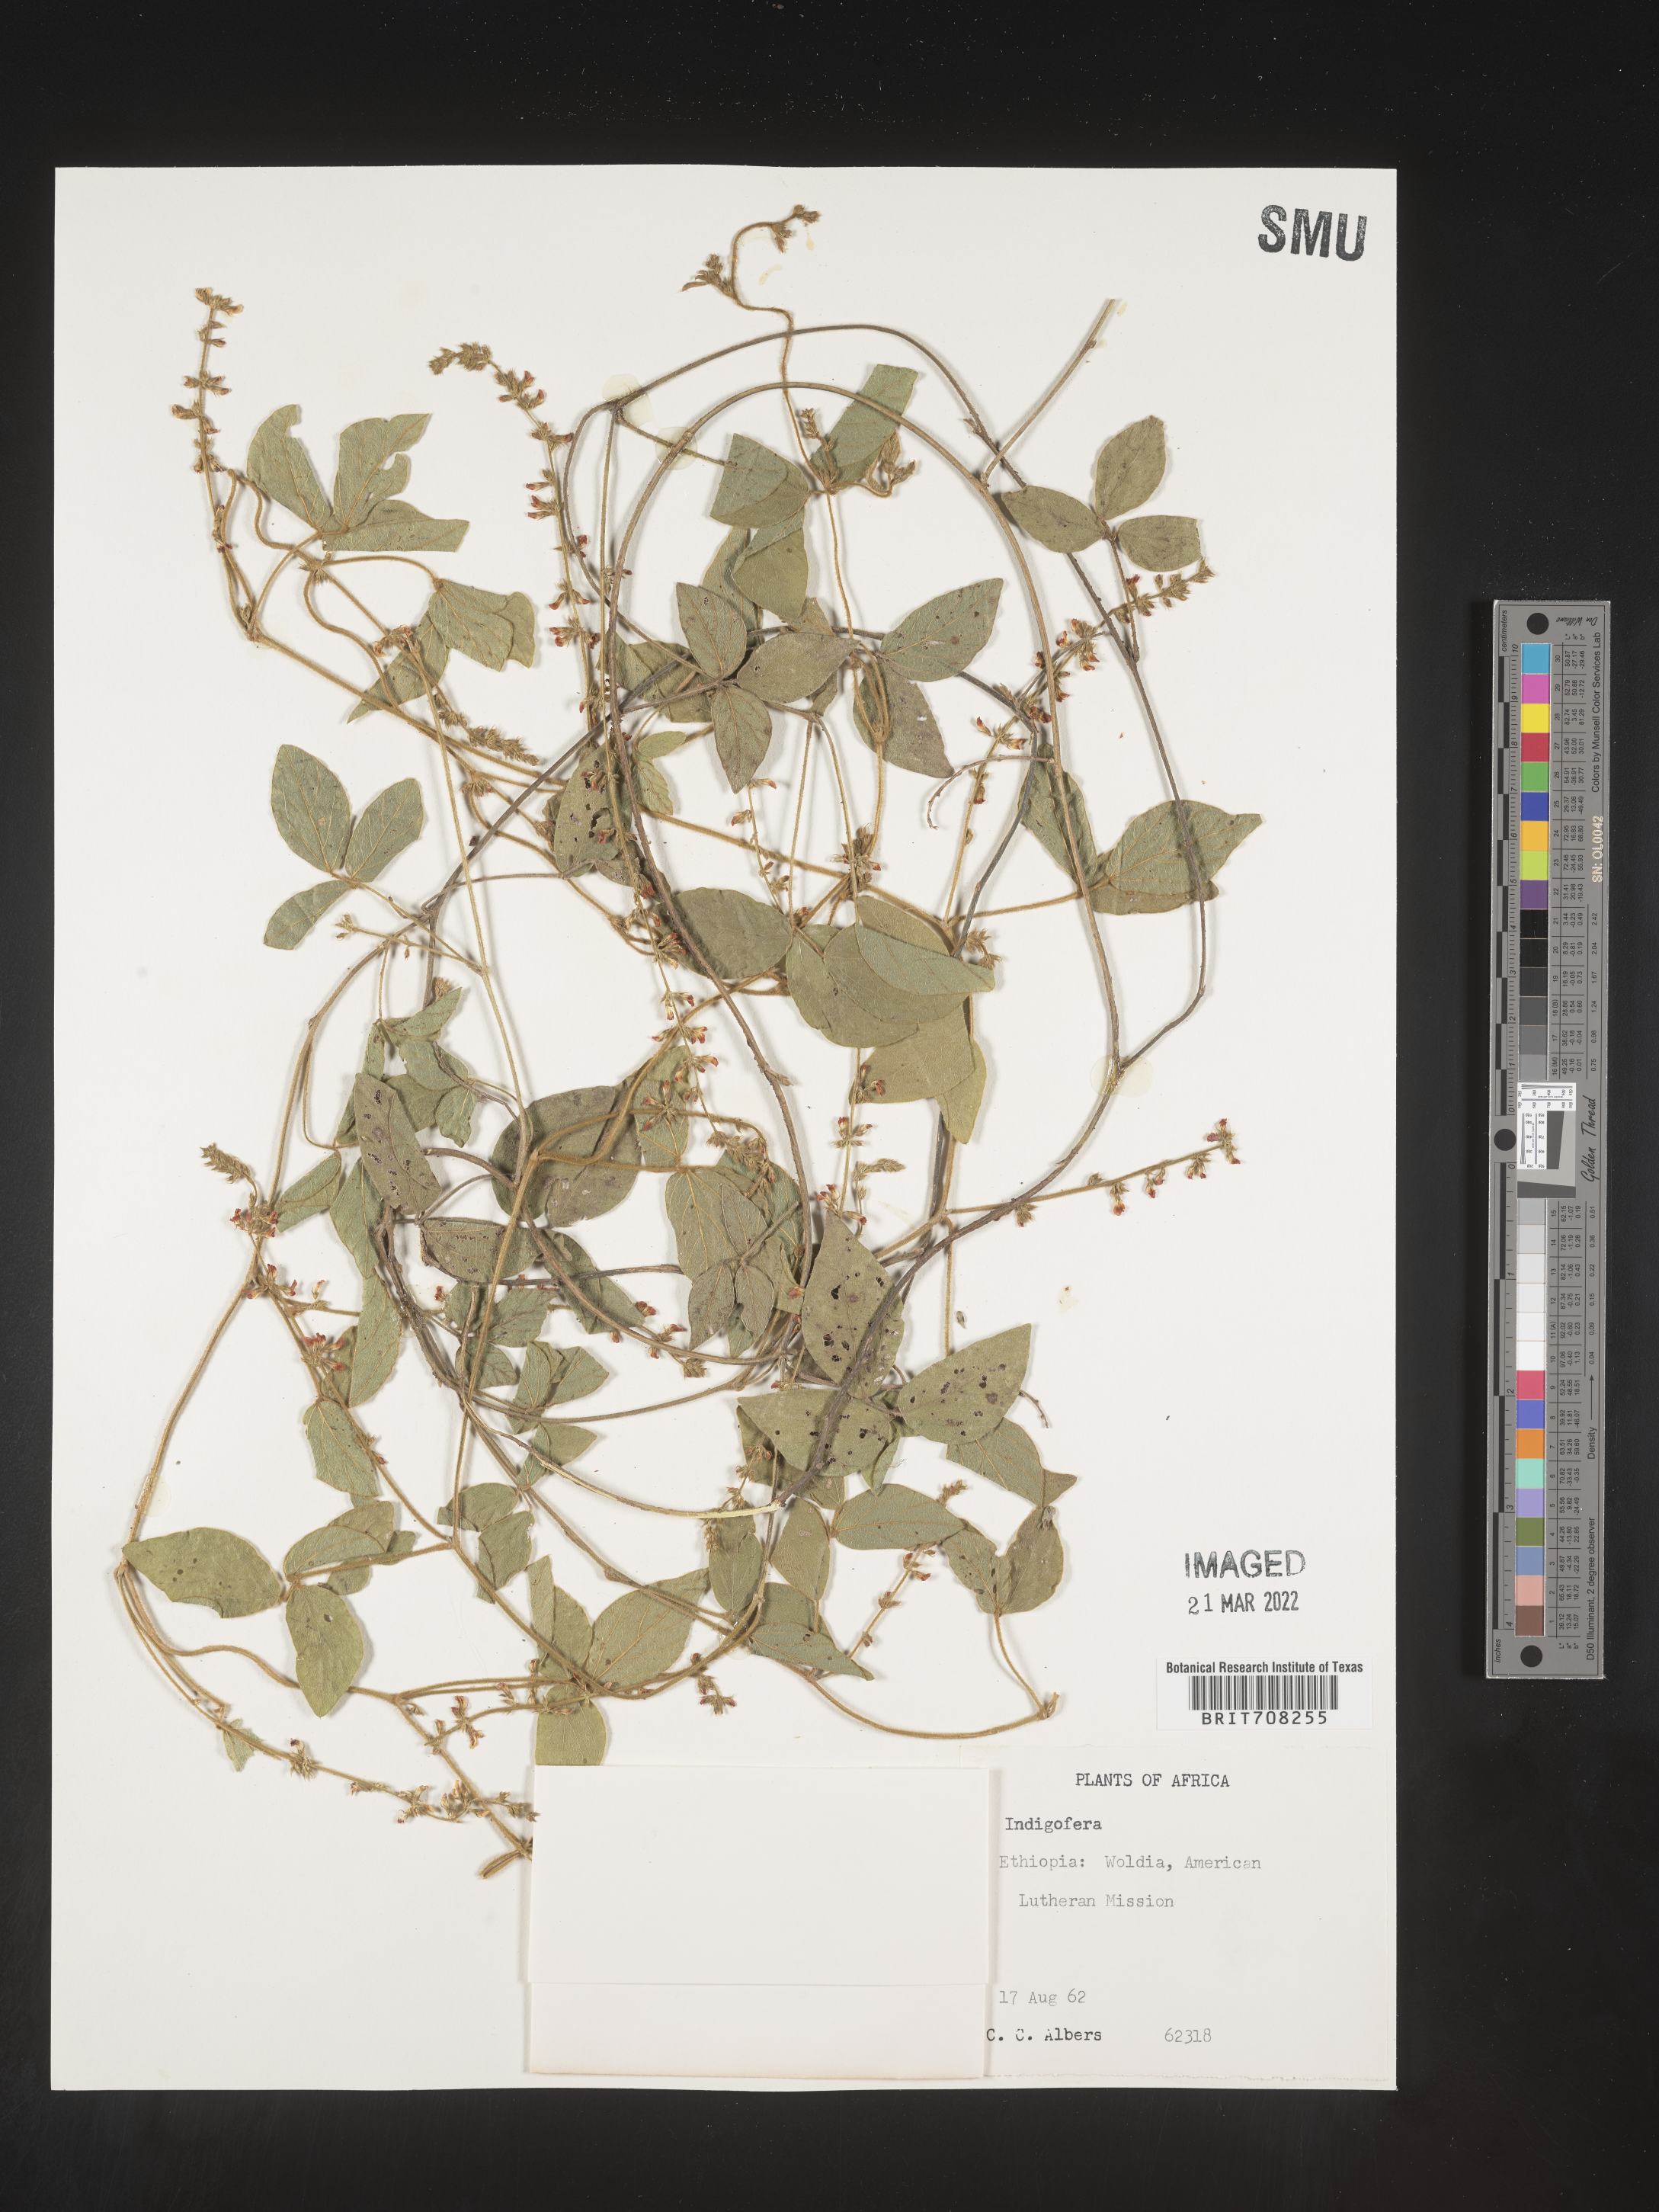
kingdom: Plantae
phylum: Tracheophyta
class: Magnoliopsida
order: Fabales
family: Fabaceae
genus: Indigofera
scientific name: Indigofera
